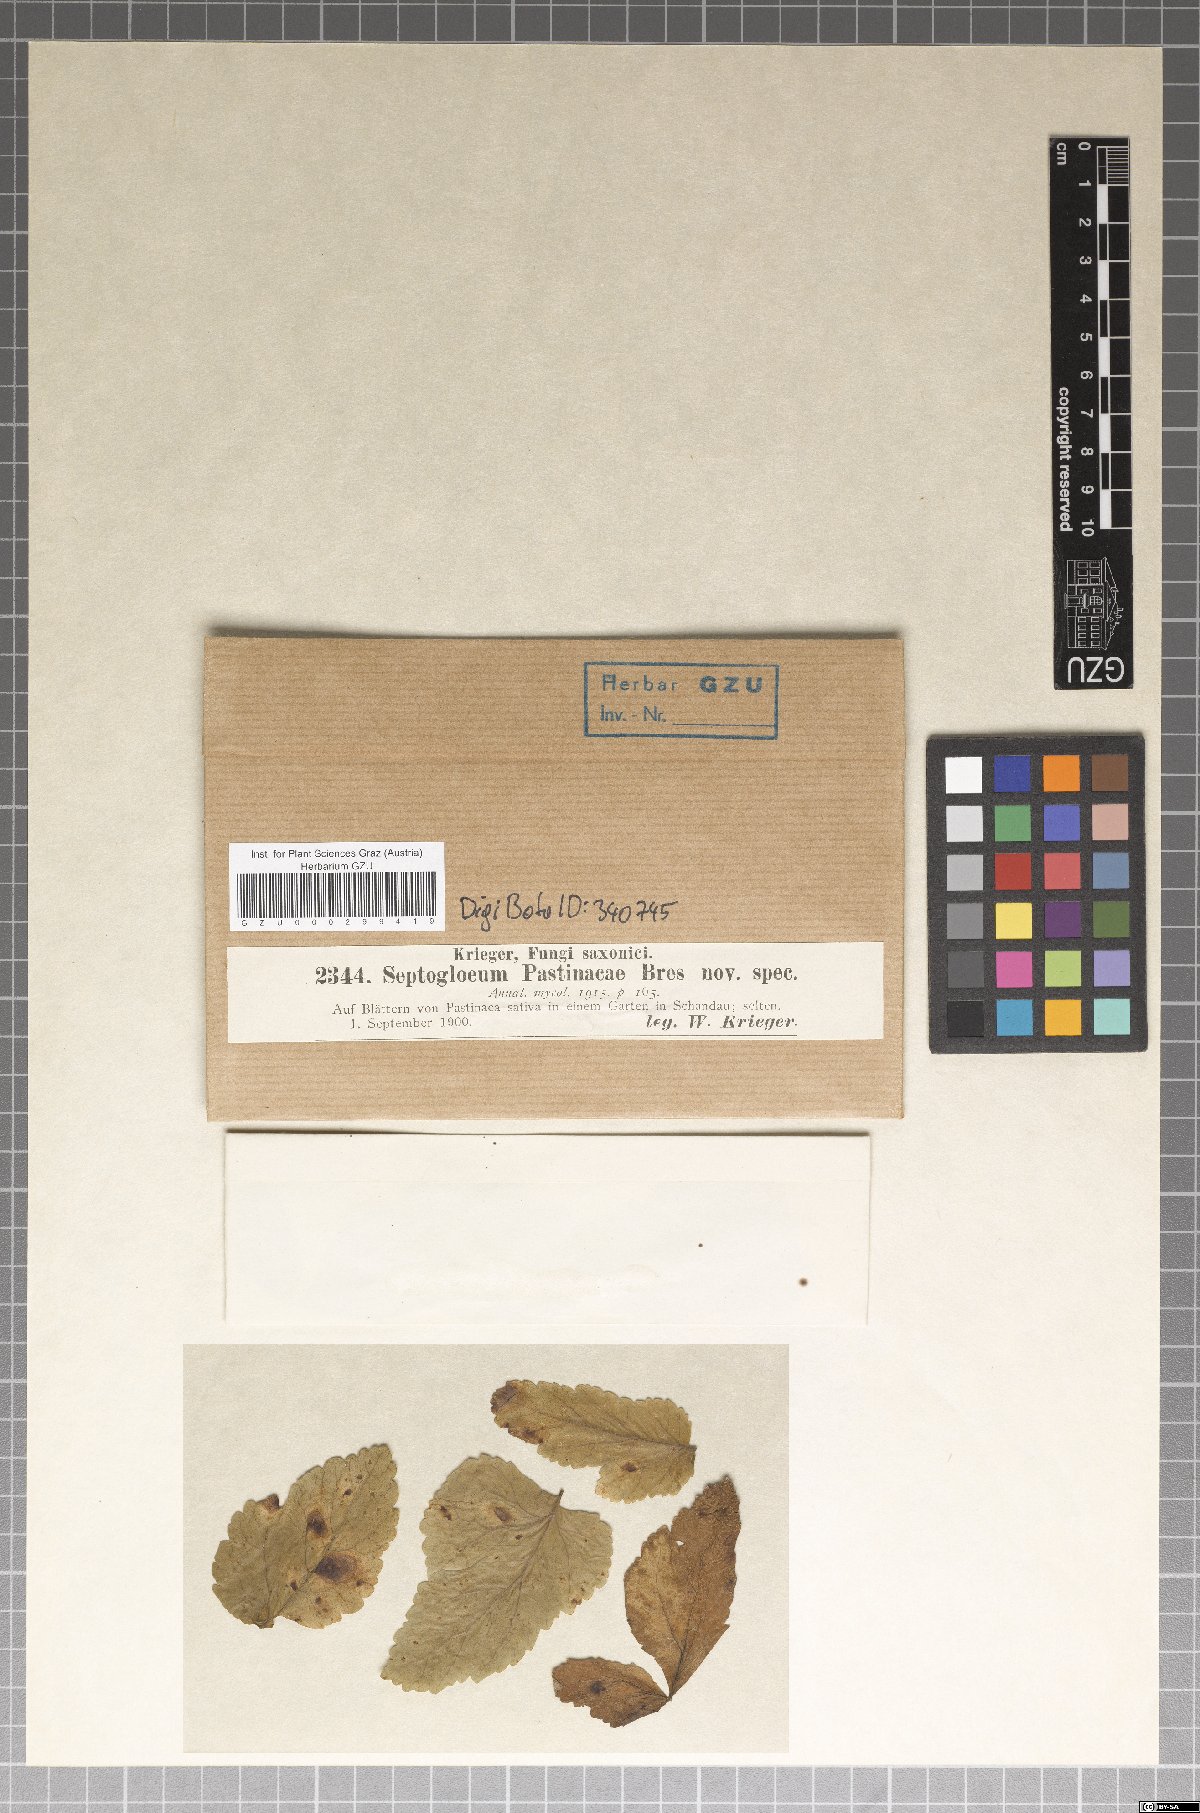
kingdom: Fungi
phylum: Ascomycota
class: Dothideomycetes
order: Mycosphaerellales
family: Mycosphaerellaceae
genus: Septogloeum
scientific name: Septogloeum
